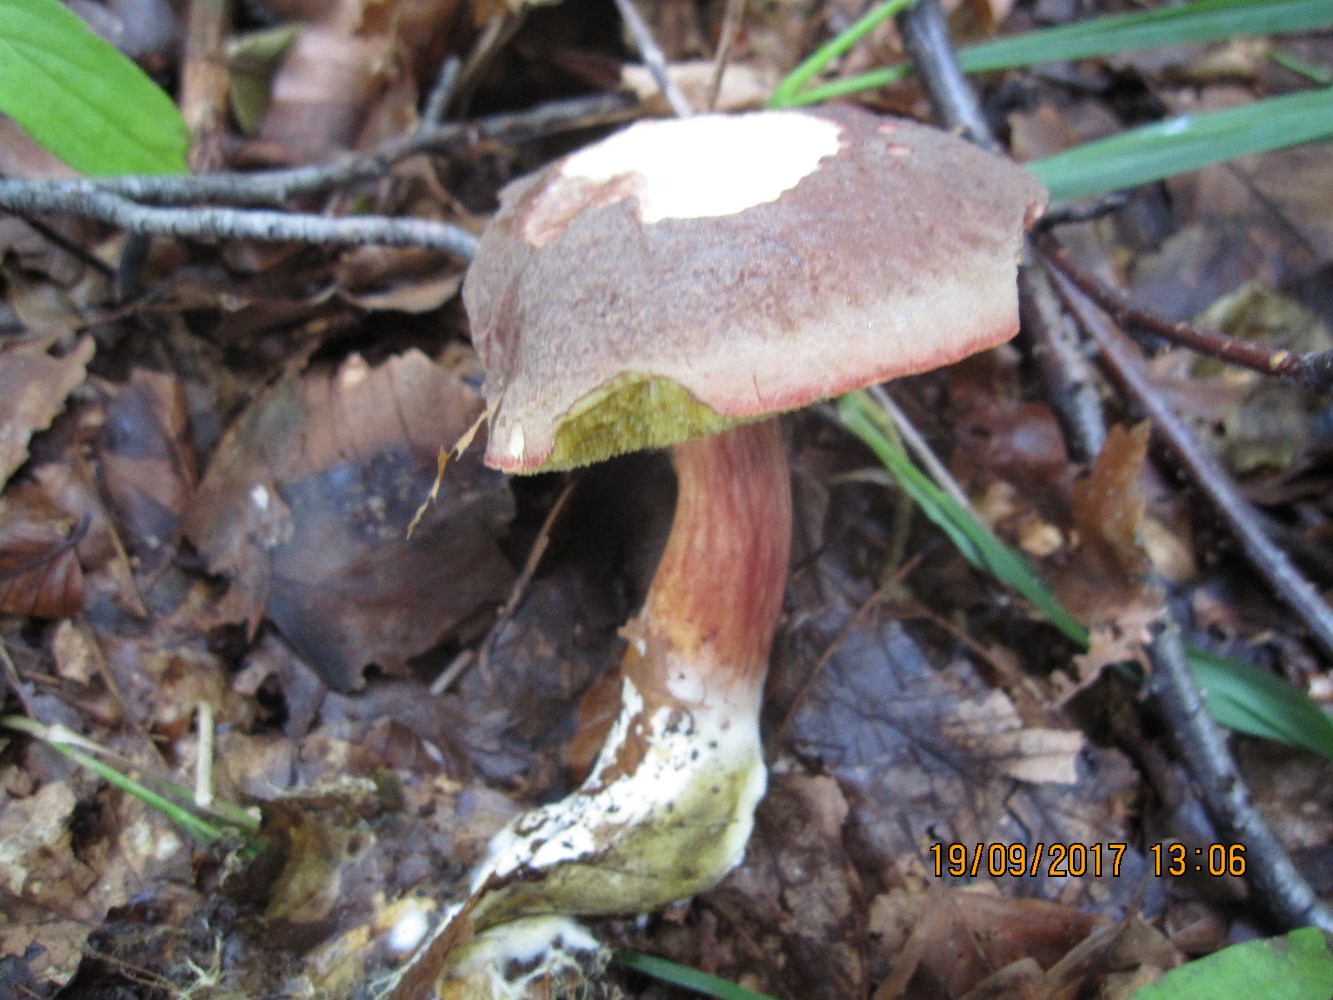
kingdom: Fungi
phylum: Basidiomycota
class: Agaricomycetes
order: Boletales
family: Boletaceae
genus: Xerocomellus
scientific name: Xerocomellus pruinatus
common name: dugget rørhat
